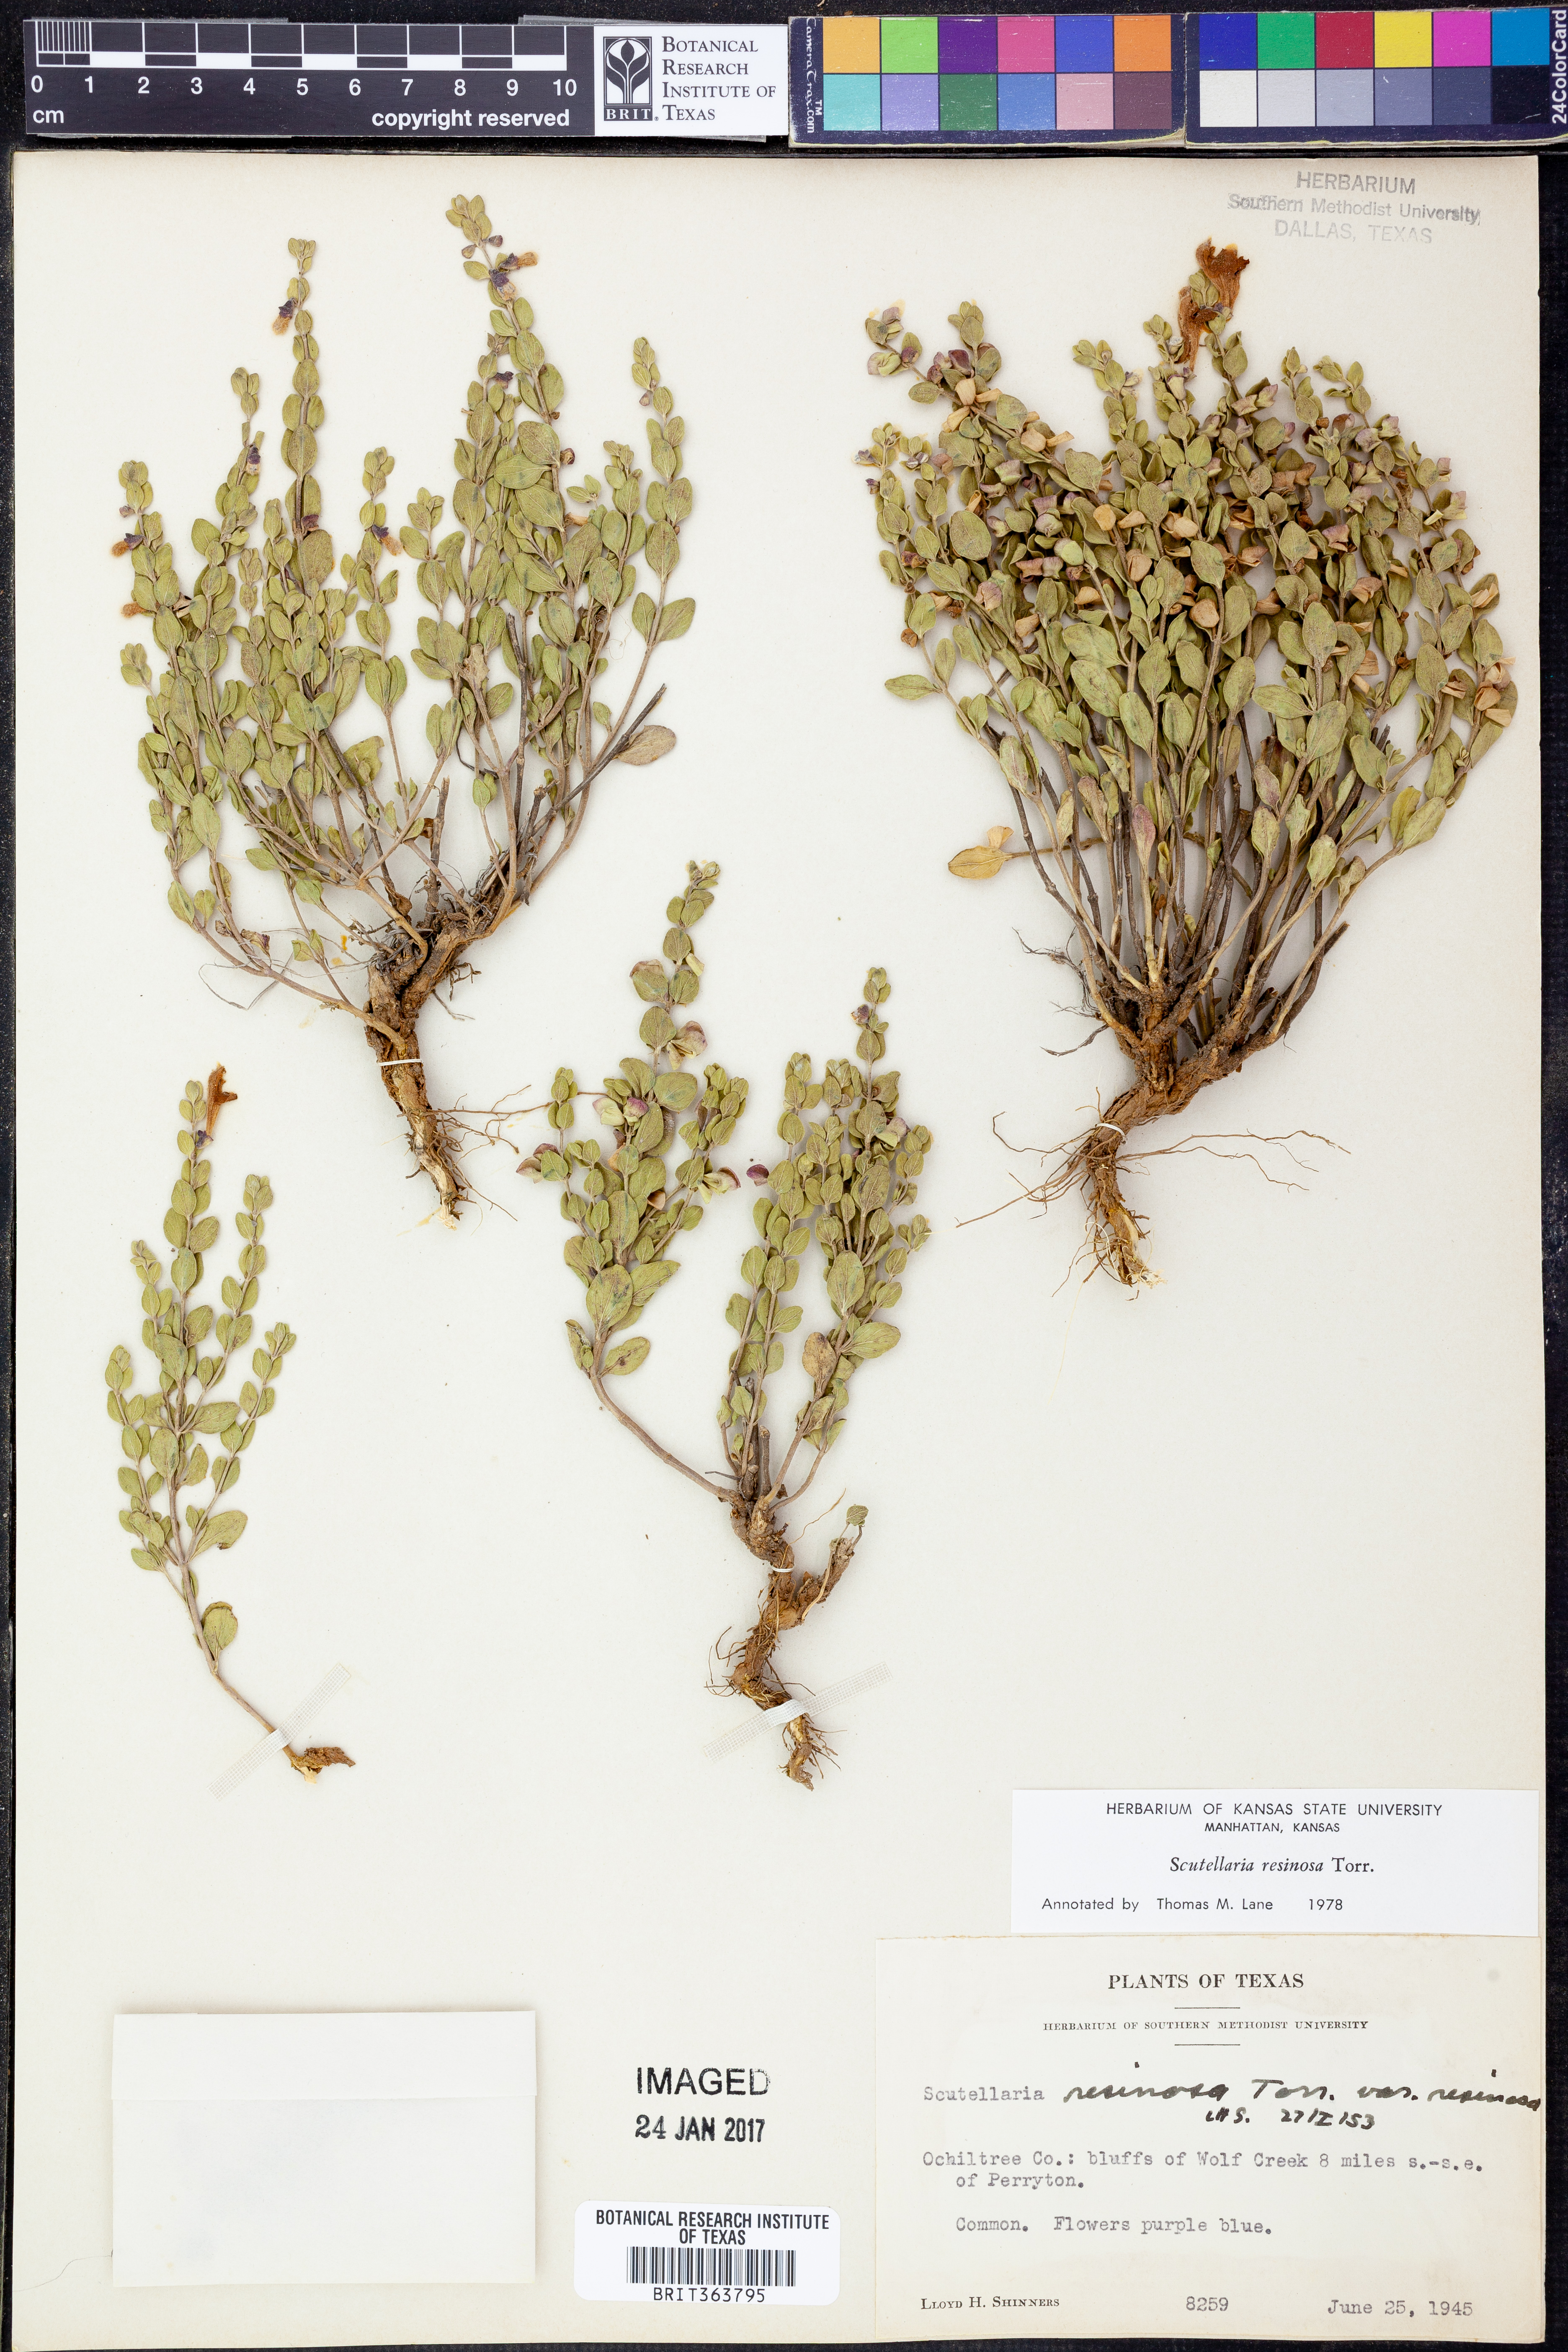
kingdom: Plantae
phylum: Tracheophyta
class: Magnoliopsida
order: Lamiales
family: Lamiaceae
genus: Scutellaria
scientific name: Scutellaria resinosa
